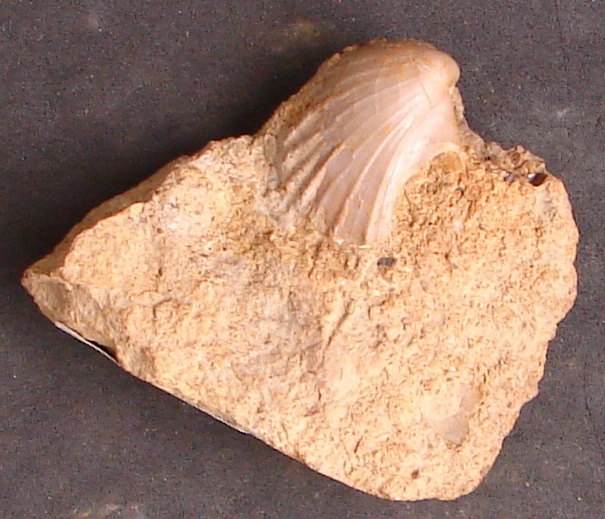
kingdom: Animalia
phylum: Mollusca
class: Bivalvia
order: Pectinida
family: Oxytomidae
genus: Oxytoma
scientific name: Oxytoma inequivalve
